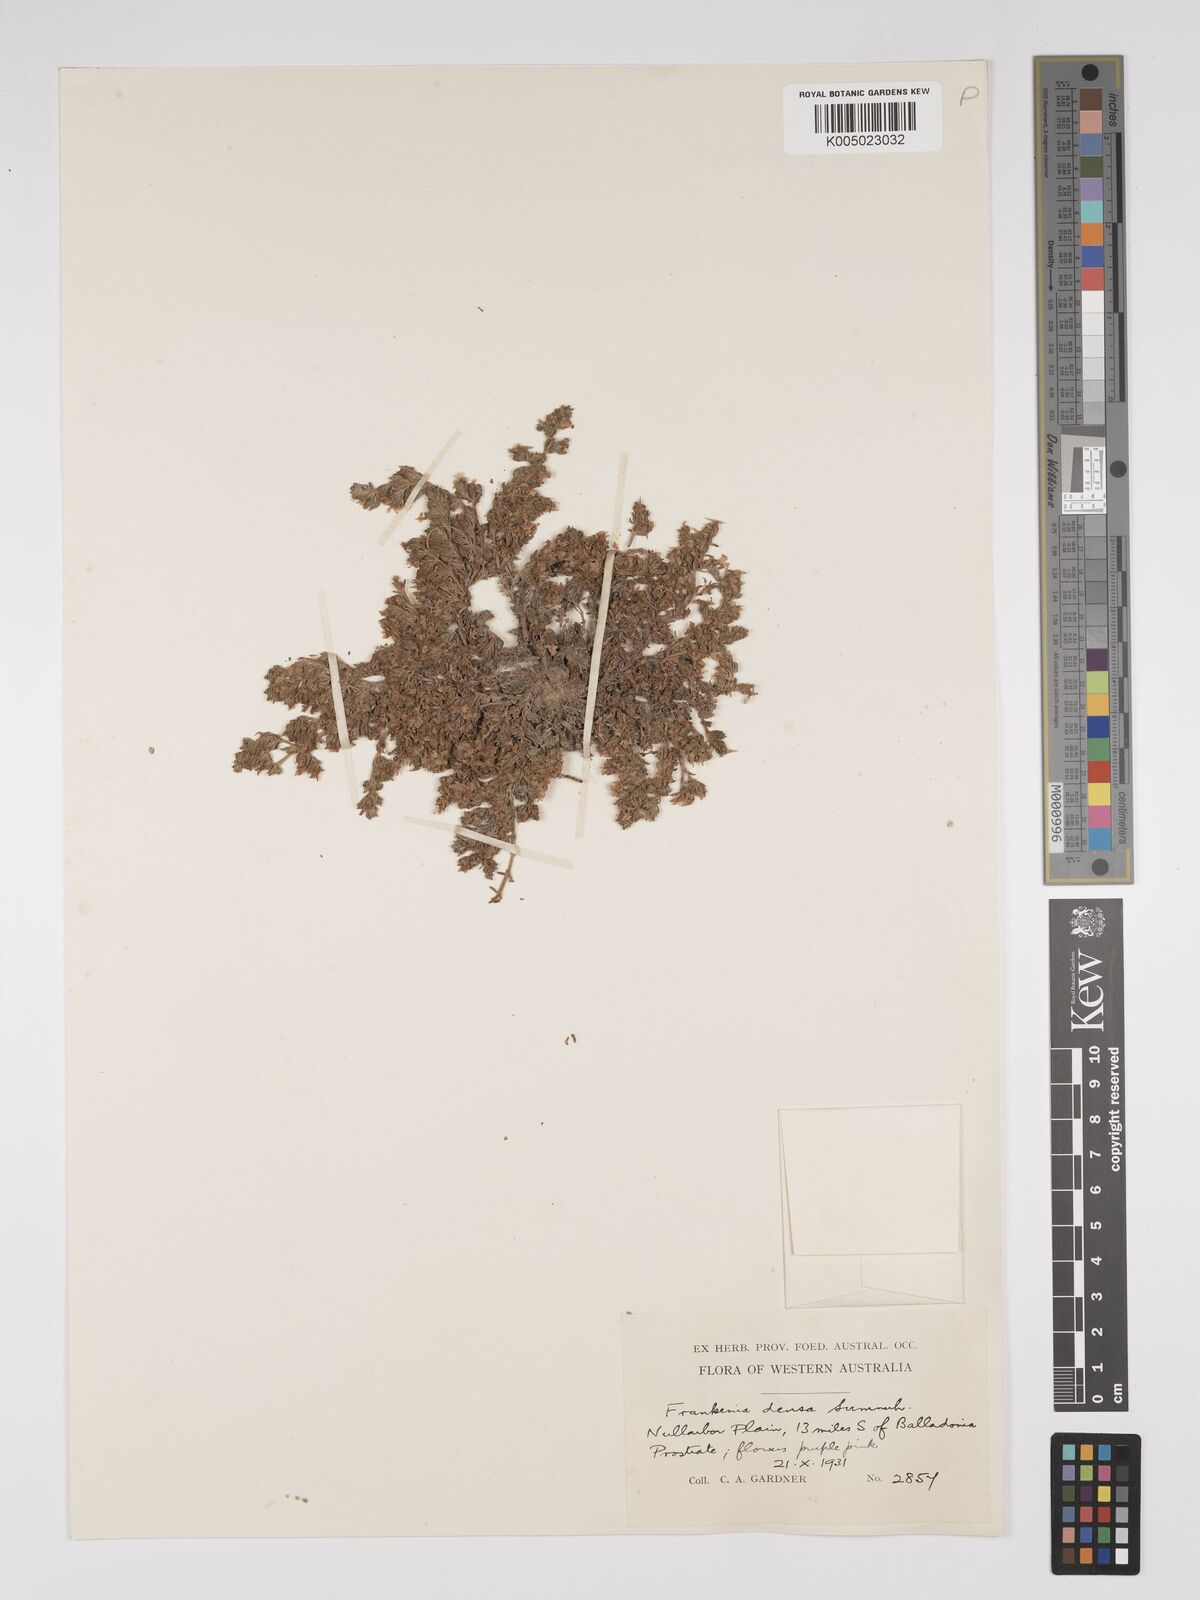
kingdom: Plantae
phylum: Tracheophyta
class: Magnoliopsida
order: Caryophyllales
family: Frankeniaceae
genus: Frankenia
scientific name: Frankenia
